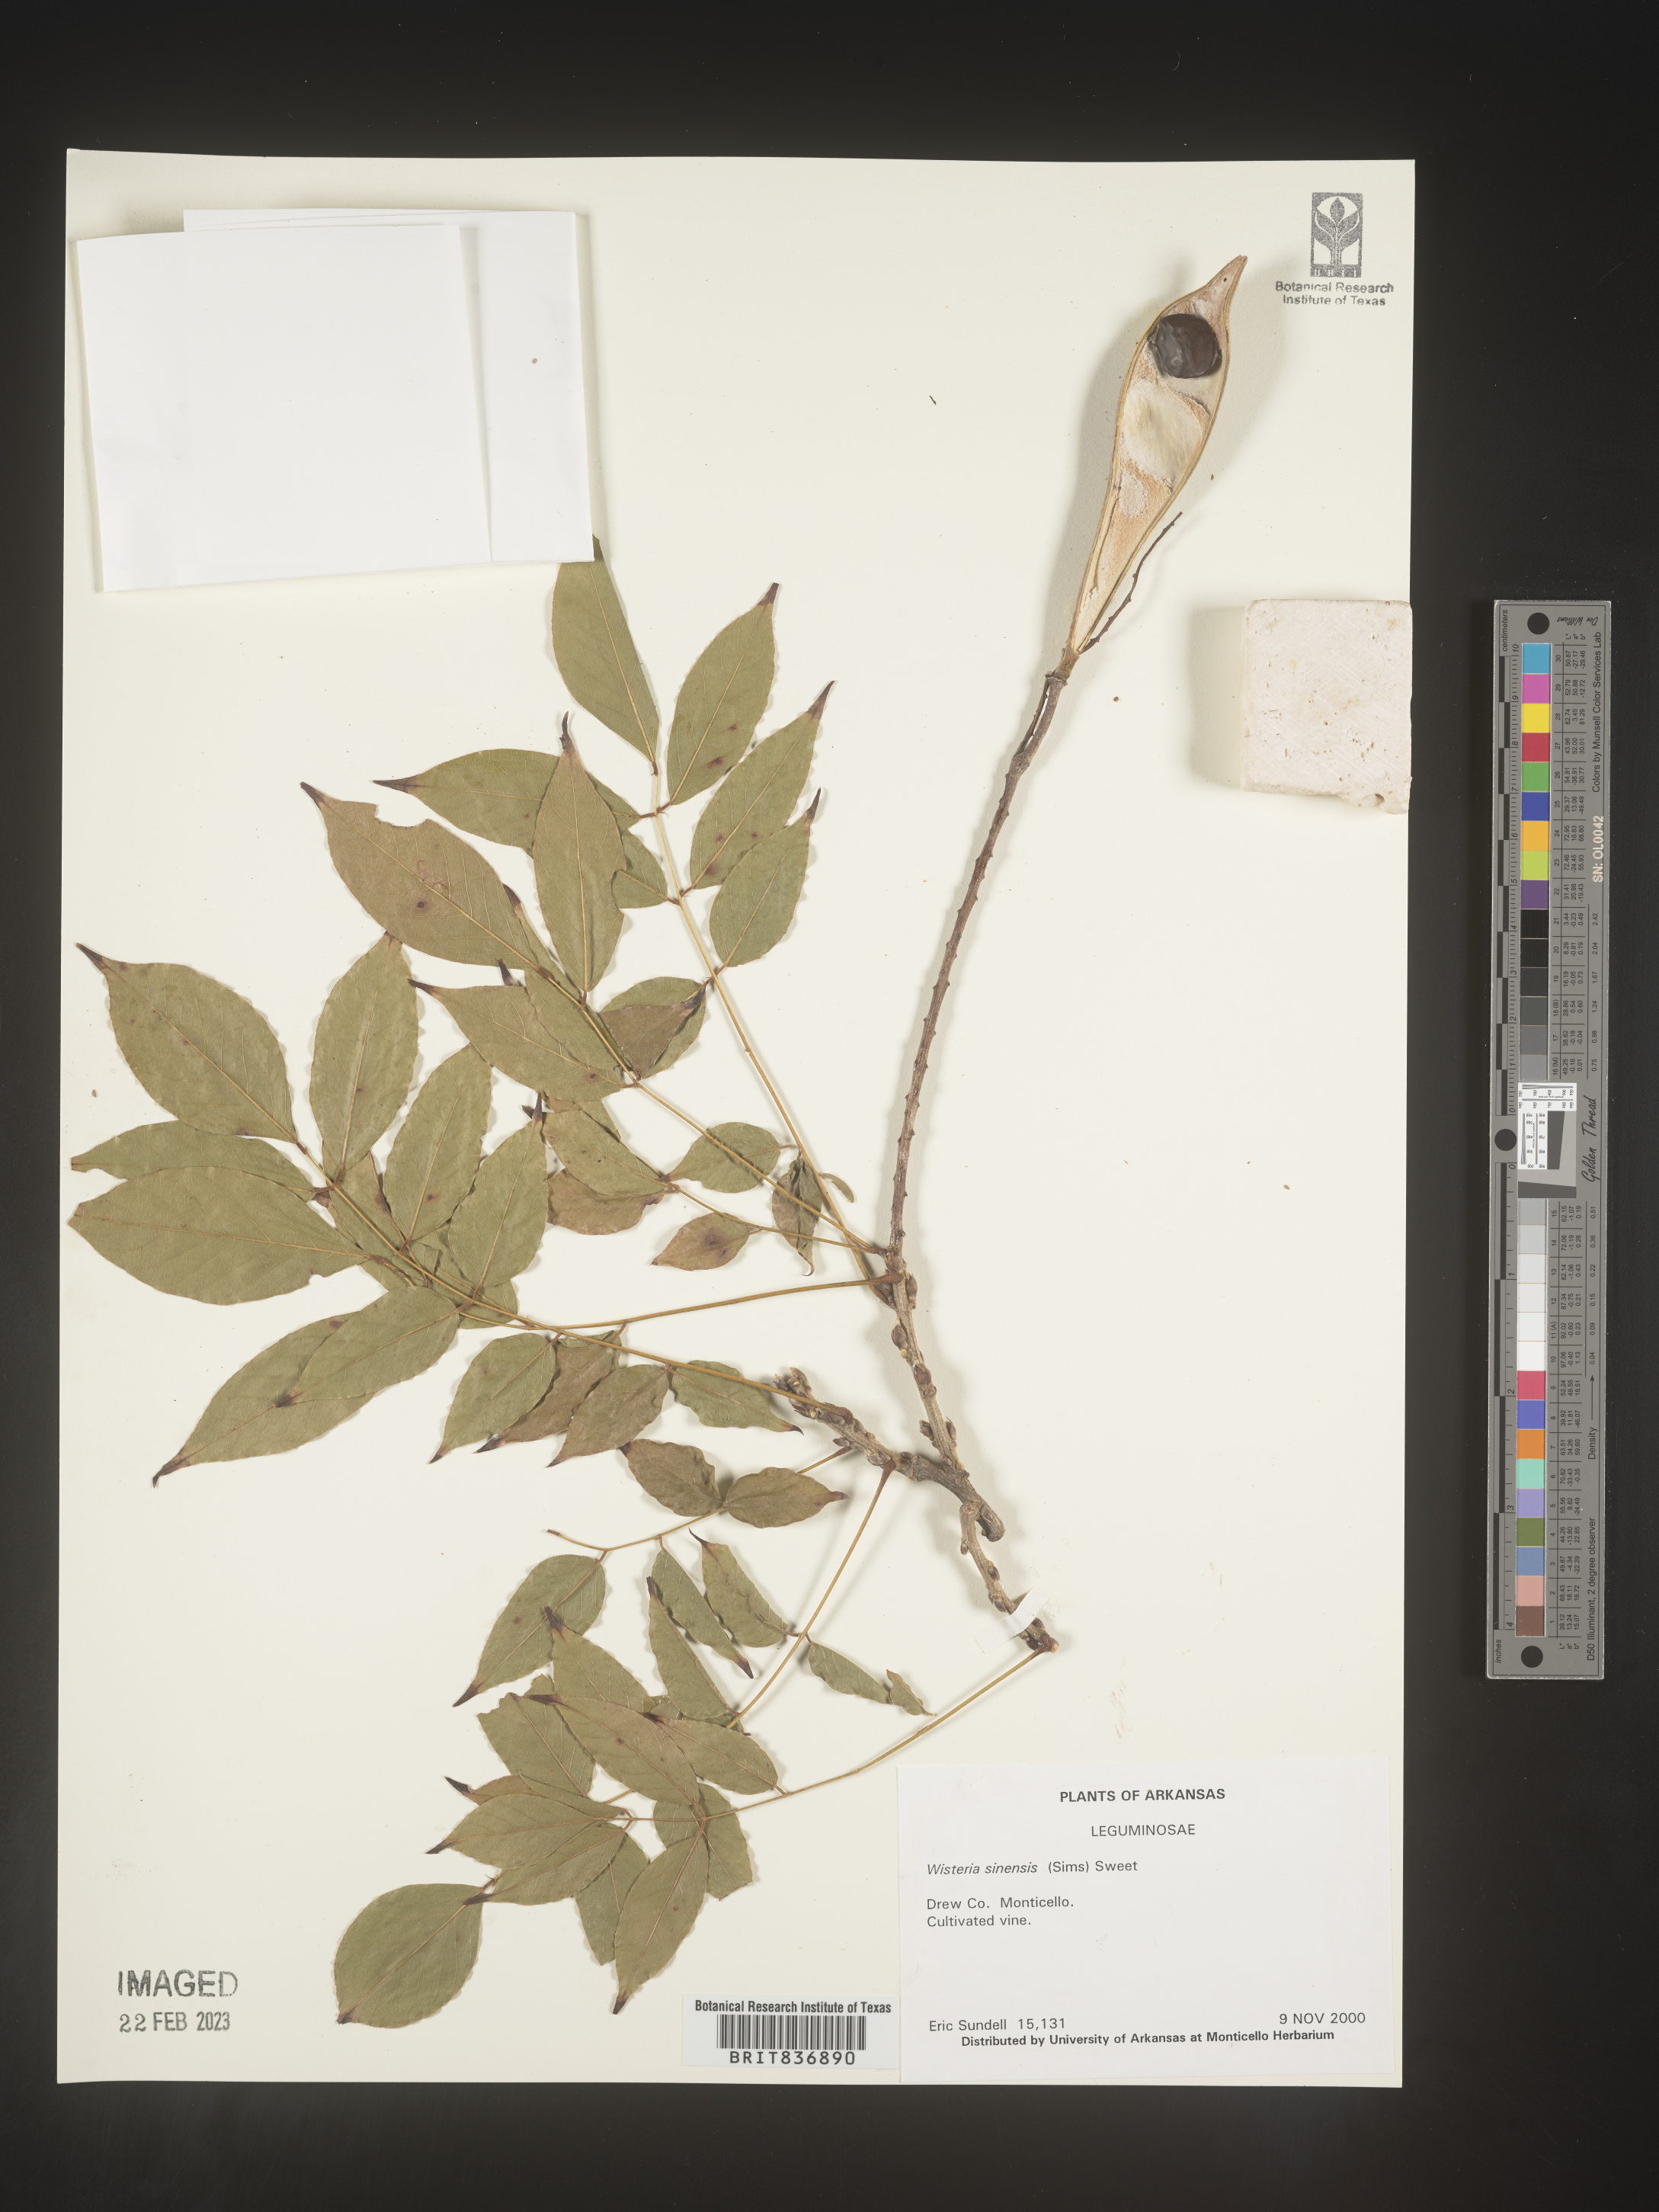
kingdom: Plantae
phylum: Tracheophyta
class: Magnoliopsida
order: Fabales
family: Fabaceae
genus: Wisteria
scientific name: Wisteria
